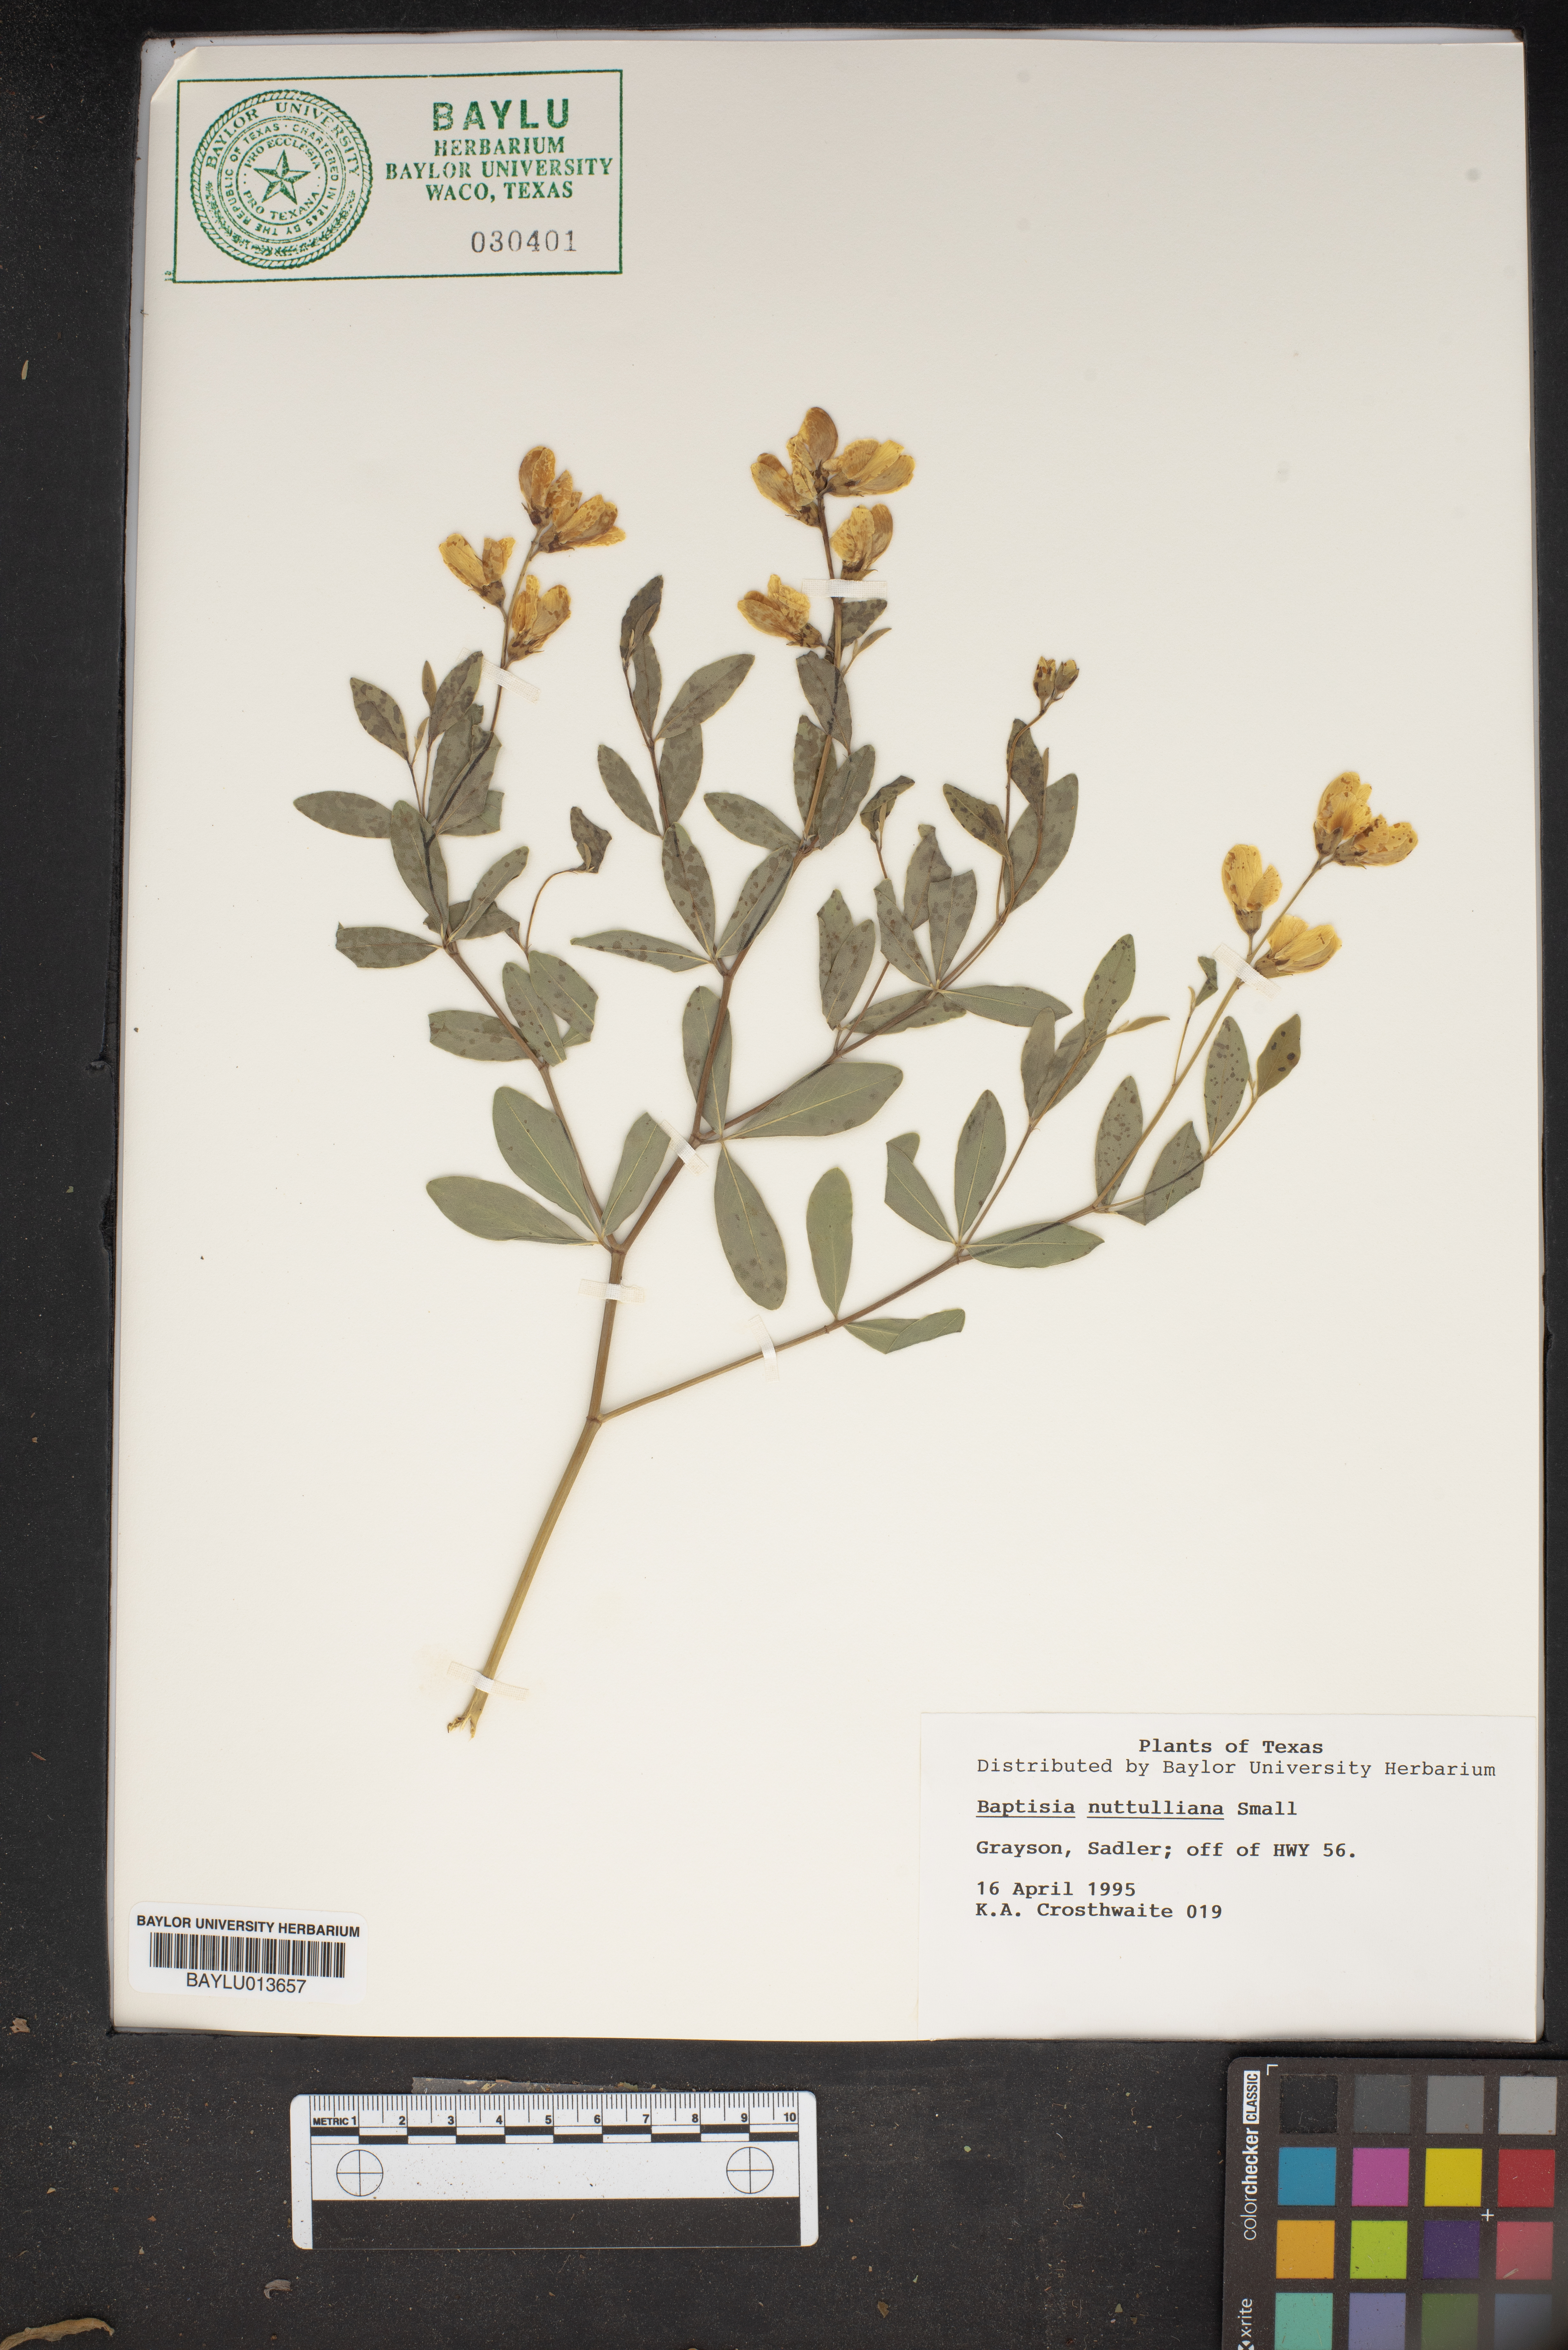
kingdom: Plantae
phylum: Tracheophyta
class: Magnoliopsida
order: Fabales
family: Fabaceae
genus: Baptisia
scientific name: Baptisia nuttalliana
